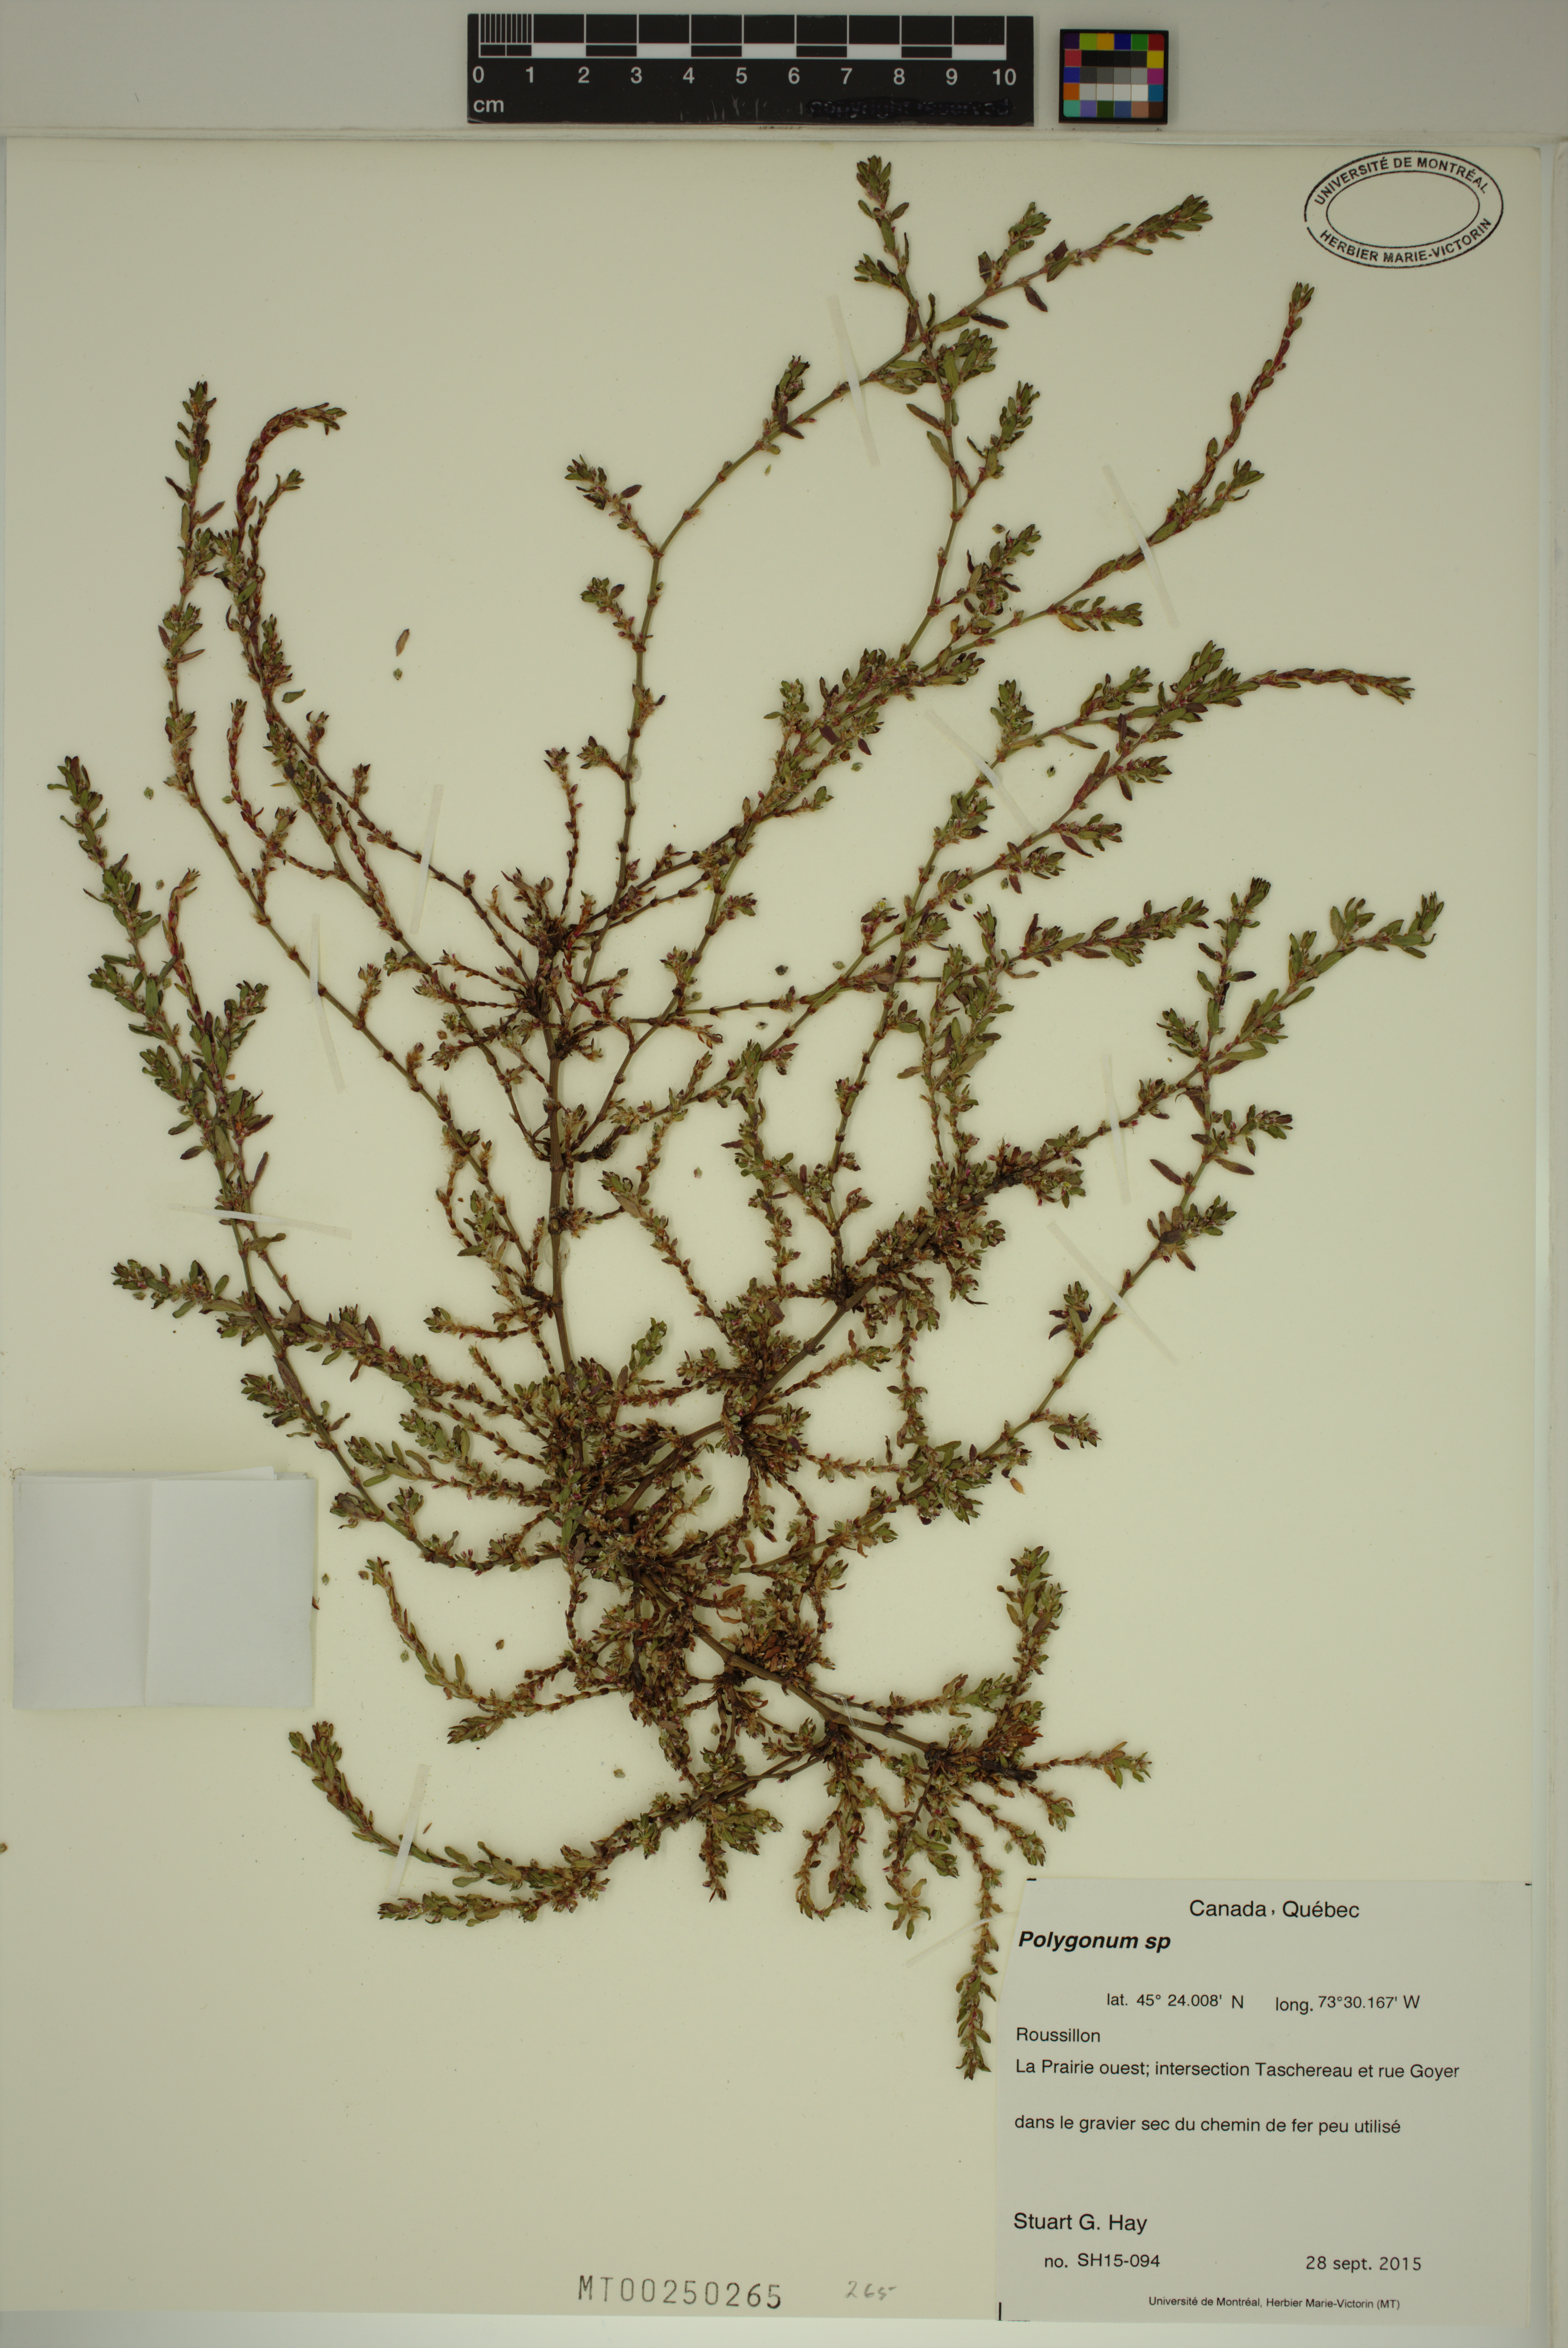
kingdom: Plantae
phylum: Tracheophyta
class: Magnoliopsida
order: Caryophyllales
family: Polygonaceae
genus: Polygonum
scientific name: Polygonum
